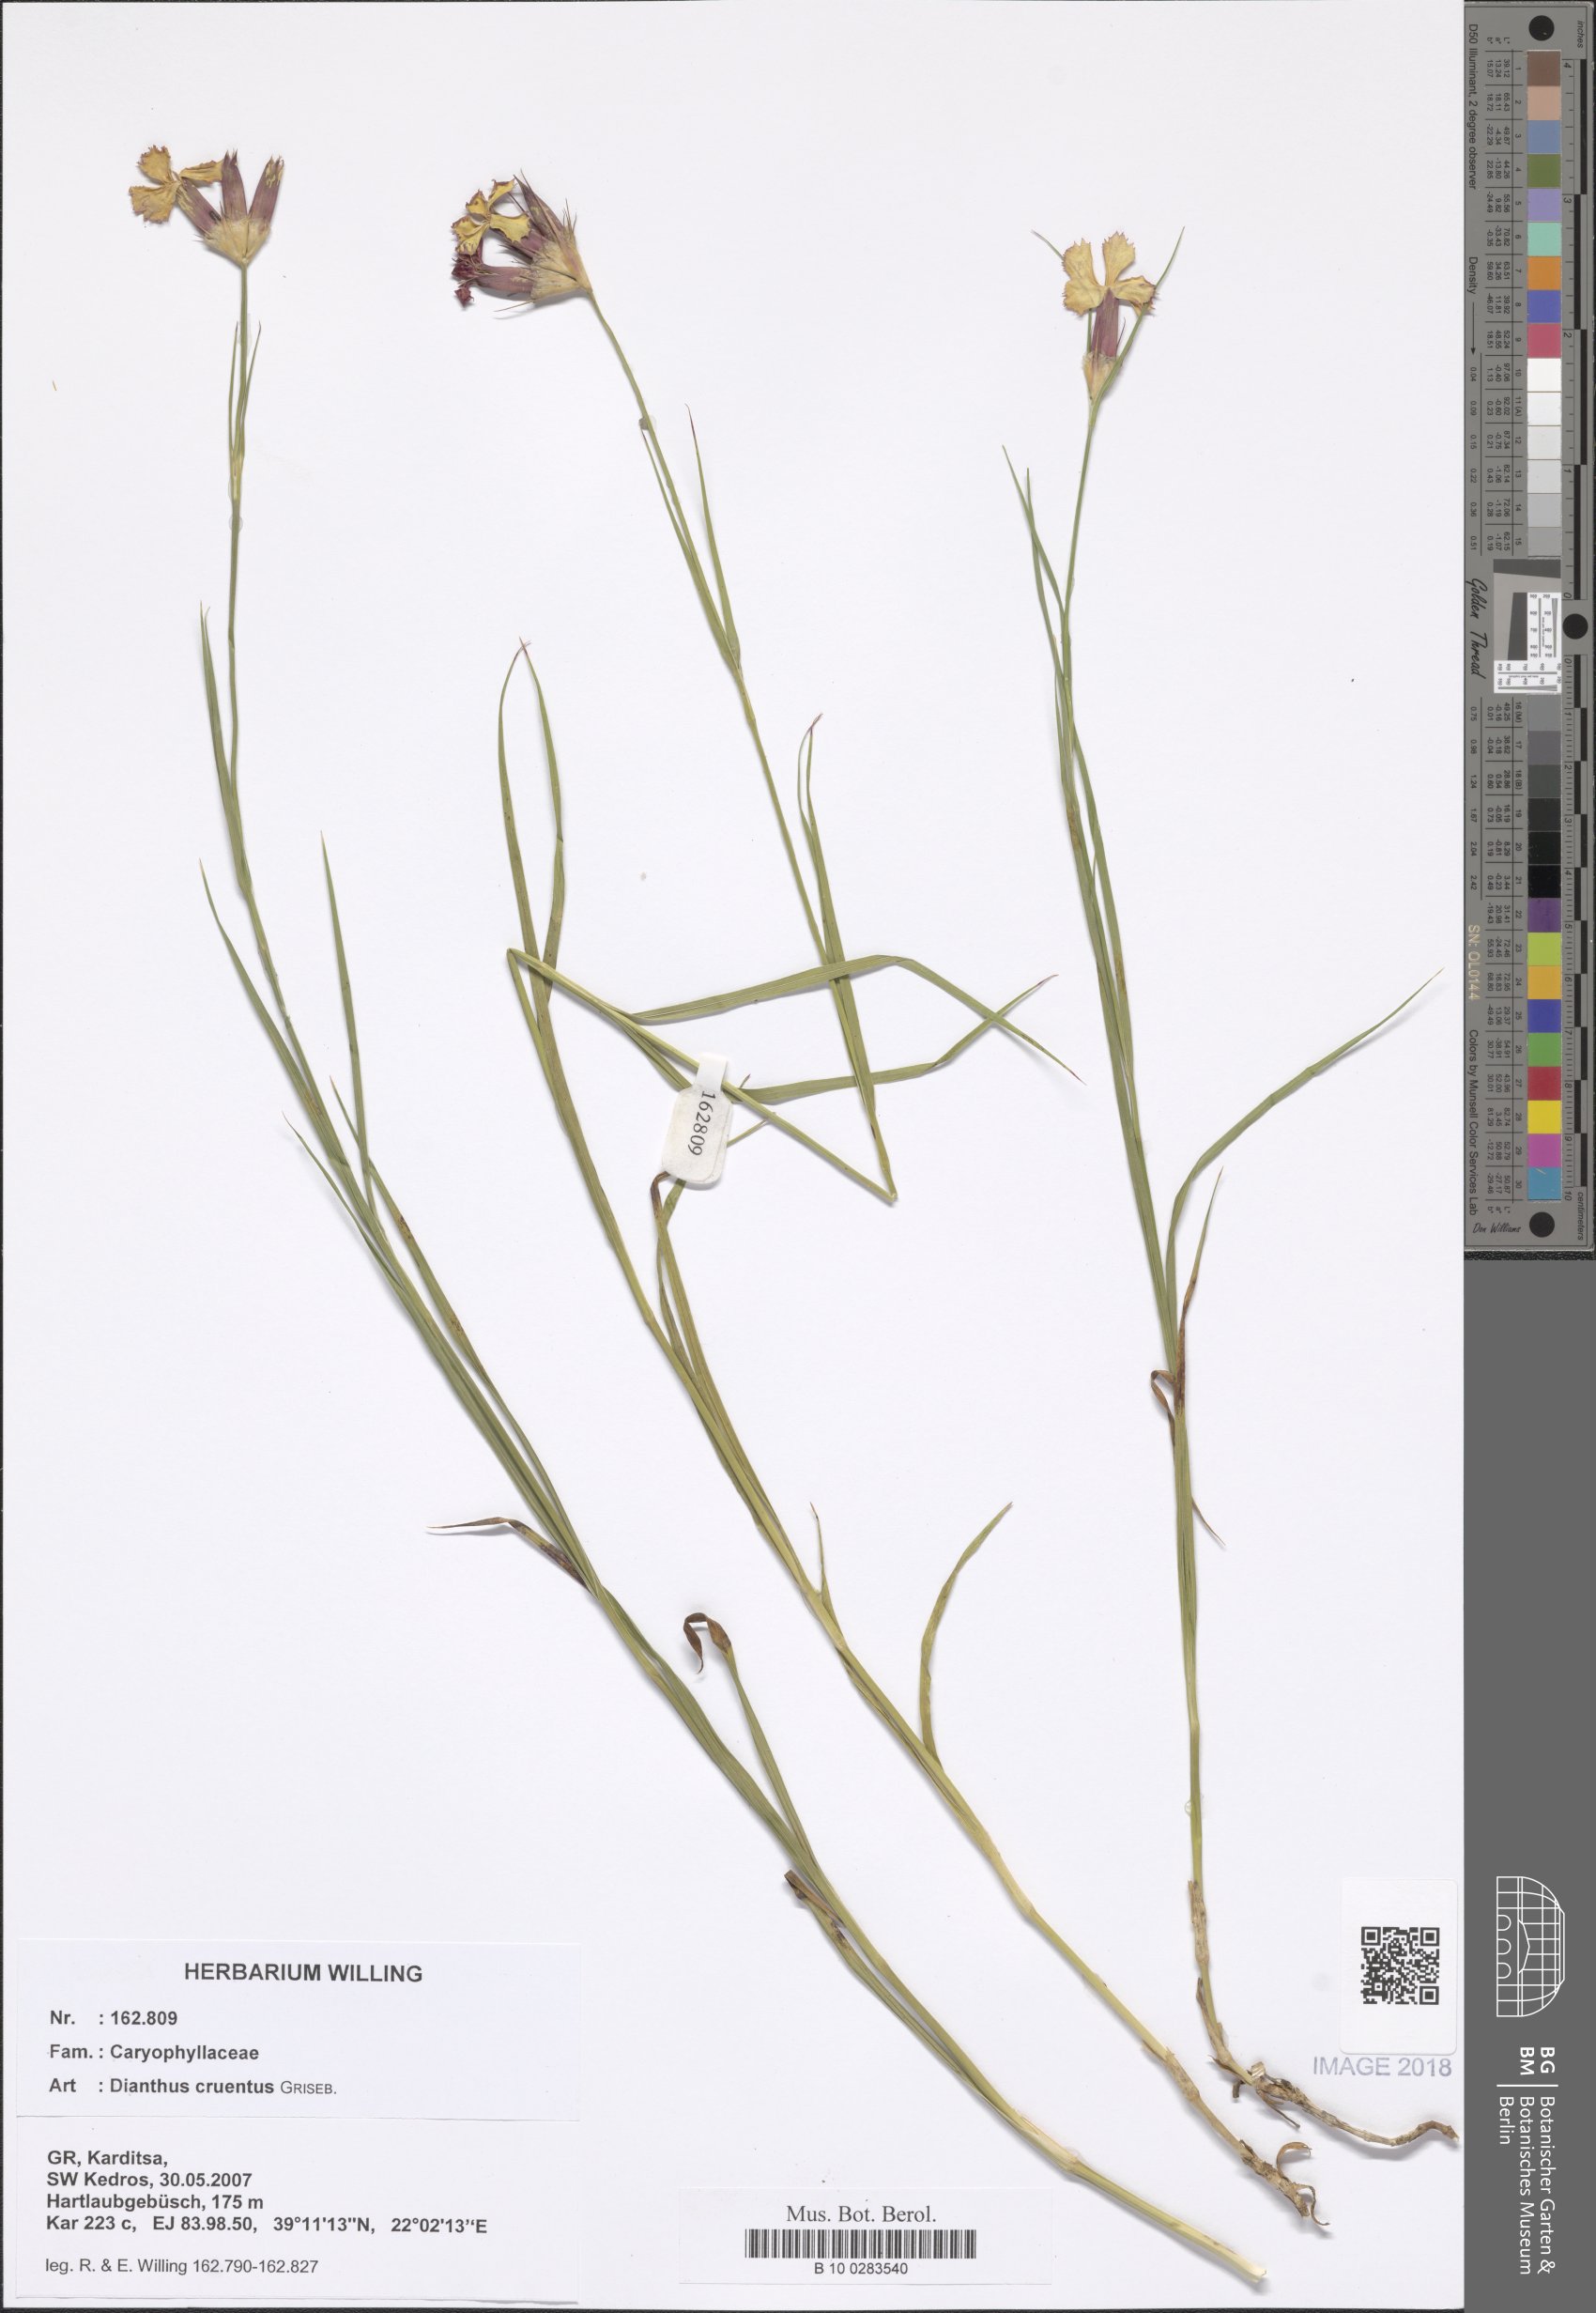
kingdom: Plantae
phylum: Tracheophyta
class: Magnoliopsida
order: Caryophyllales
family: Caryophyllaceae
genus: Dianthus
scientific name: Dianthus cruentus
